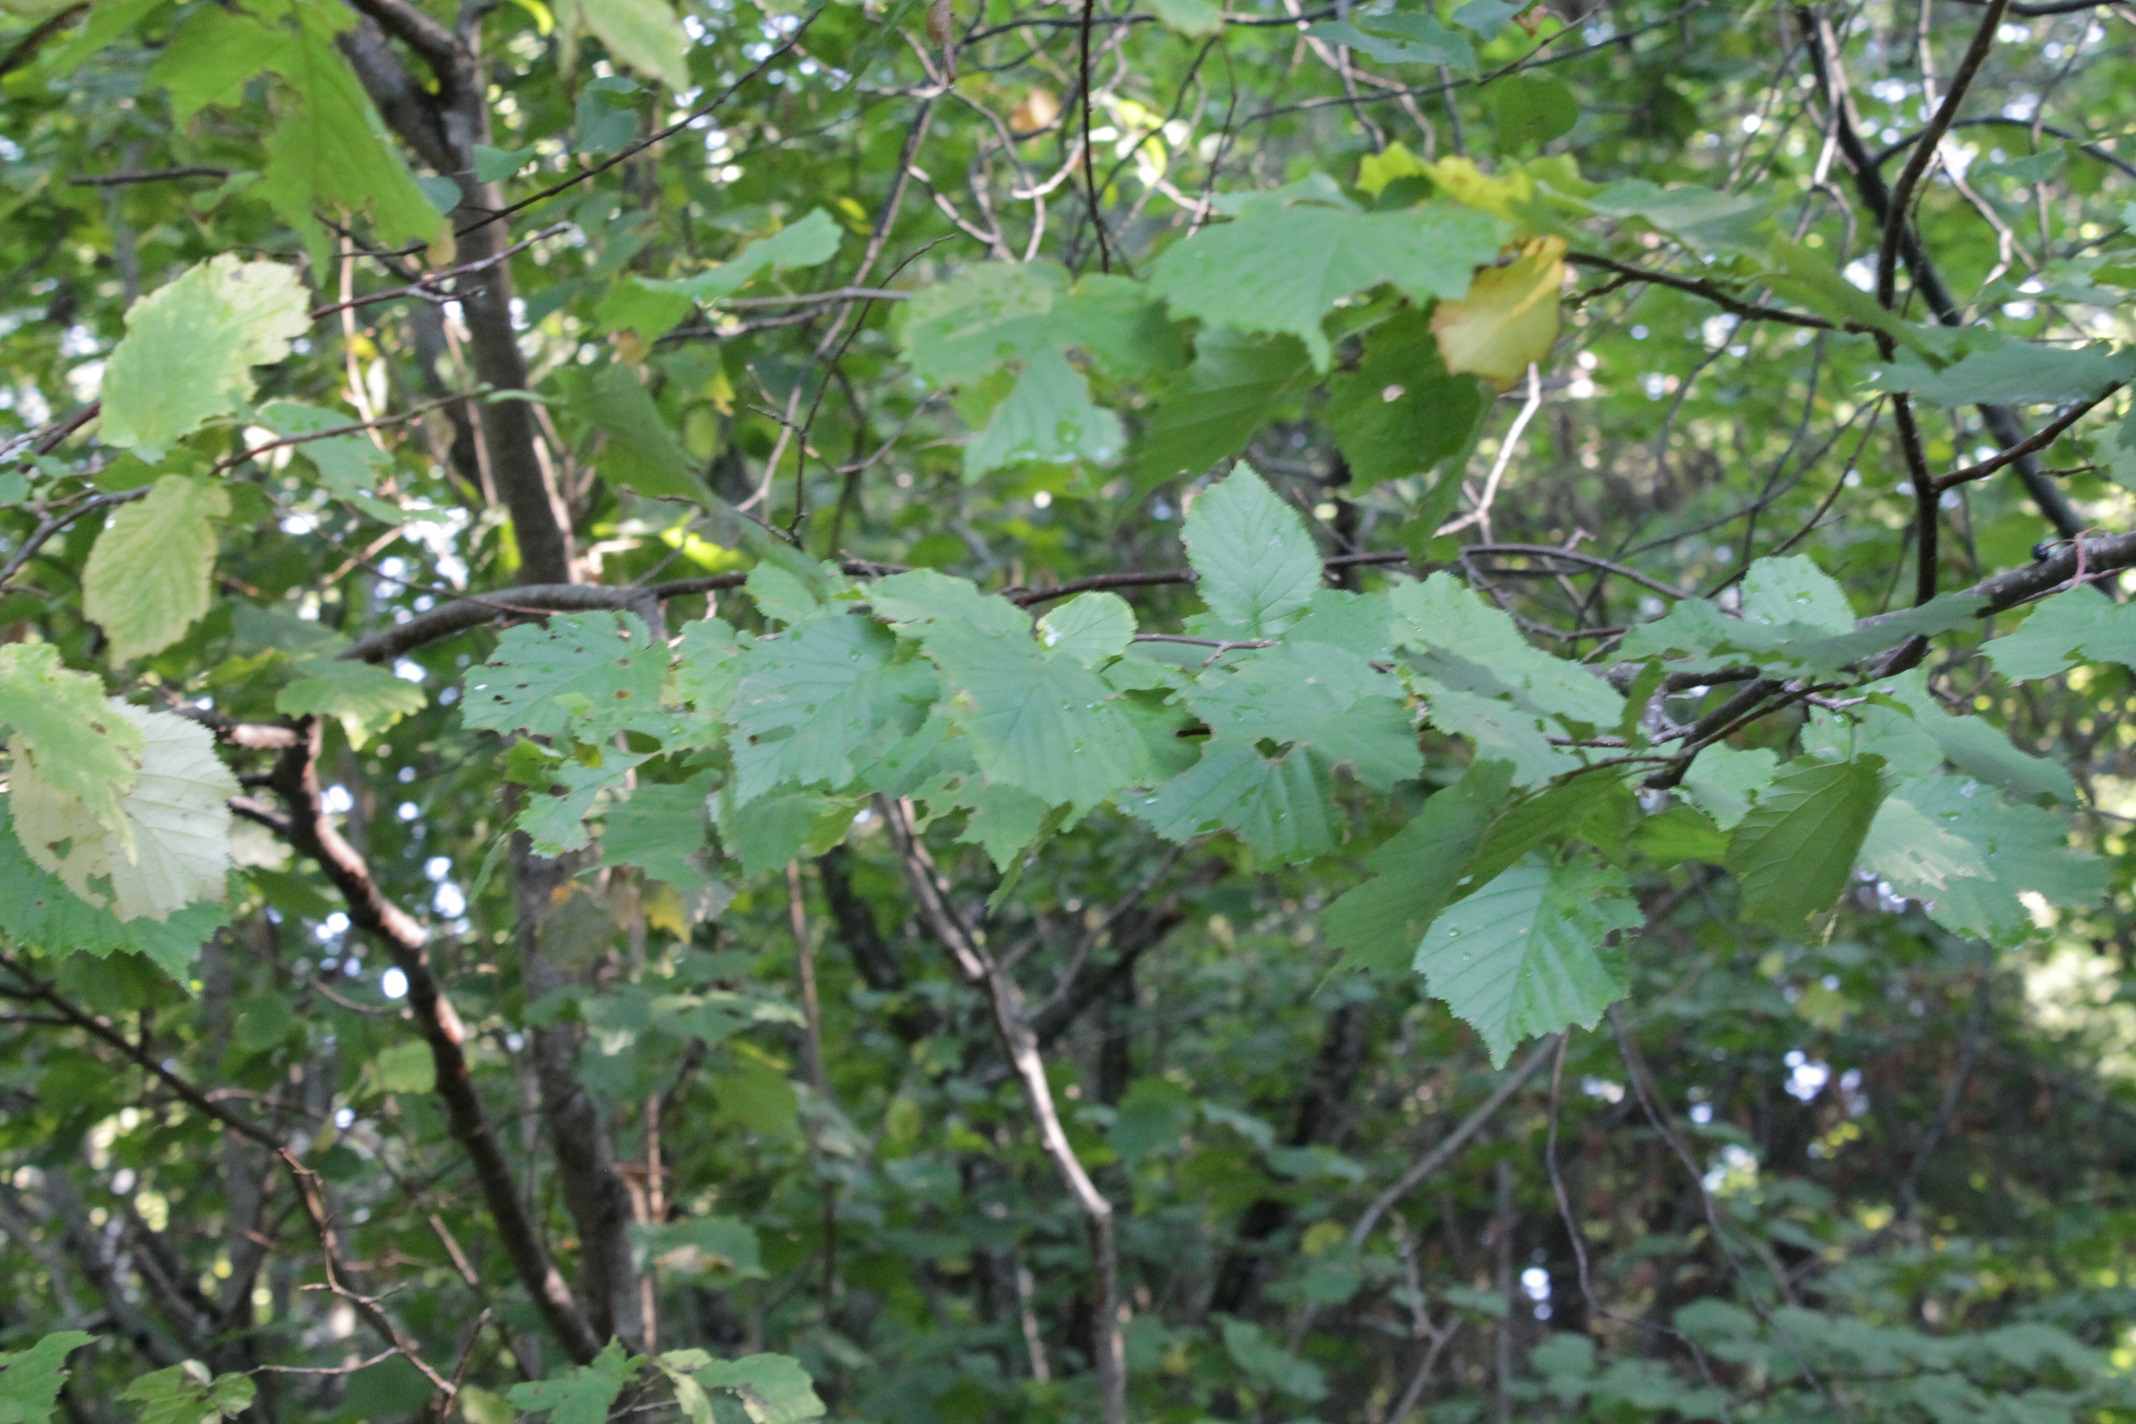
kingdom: Plantae
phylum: Tracheophyta
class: Magnoliopsida
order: Fagales
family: Betulaceae
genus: Corylus
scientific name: Corylus avellana
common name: European hazel
